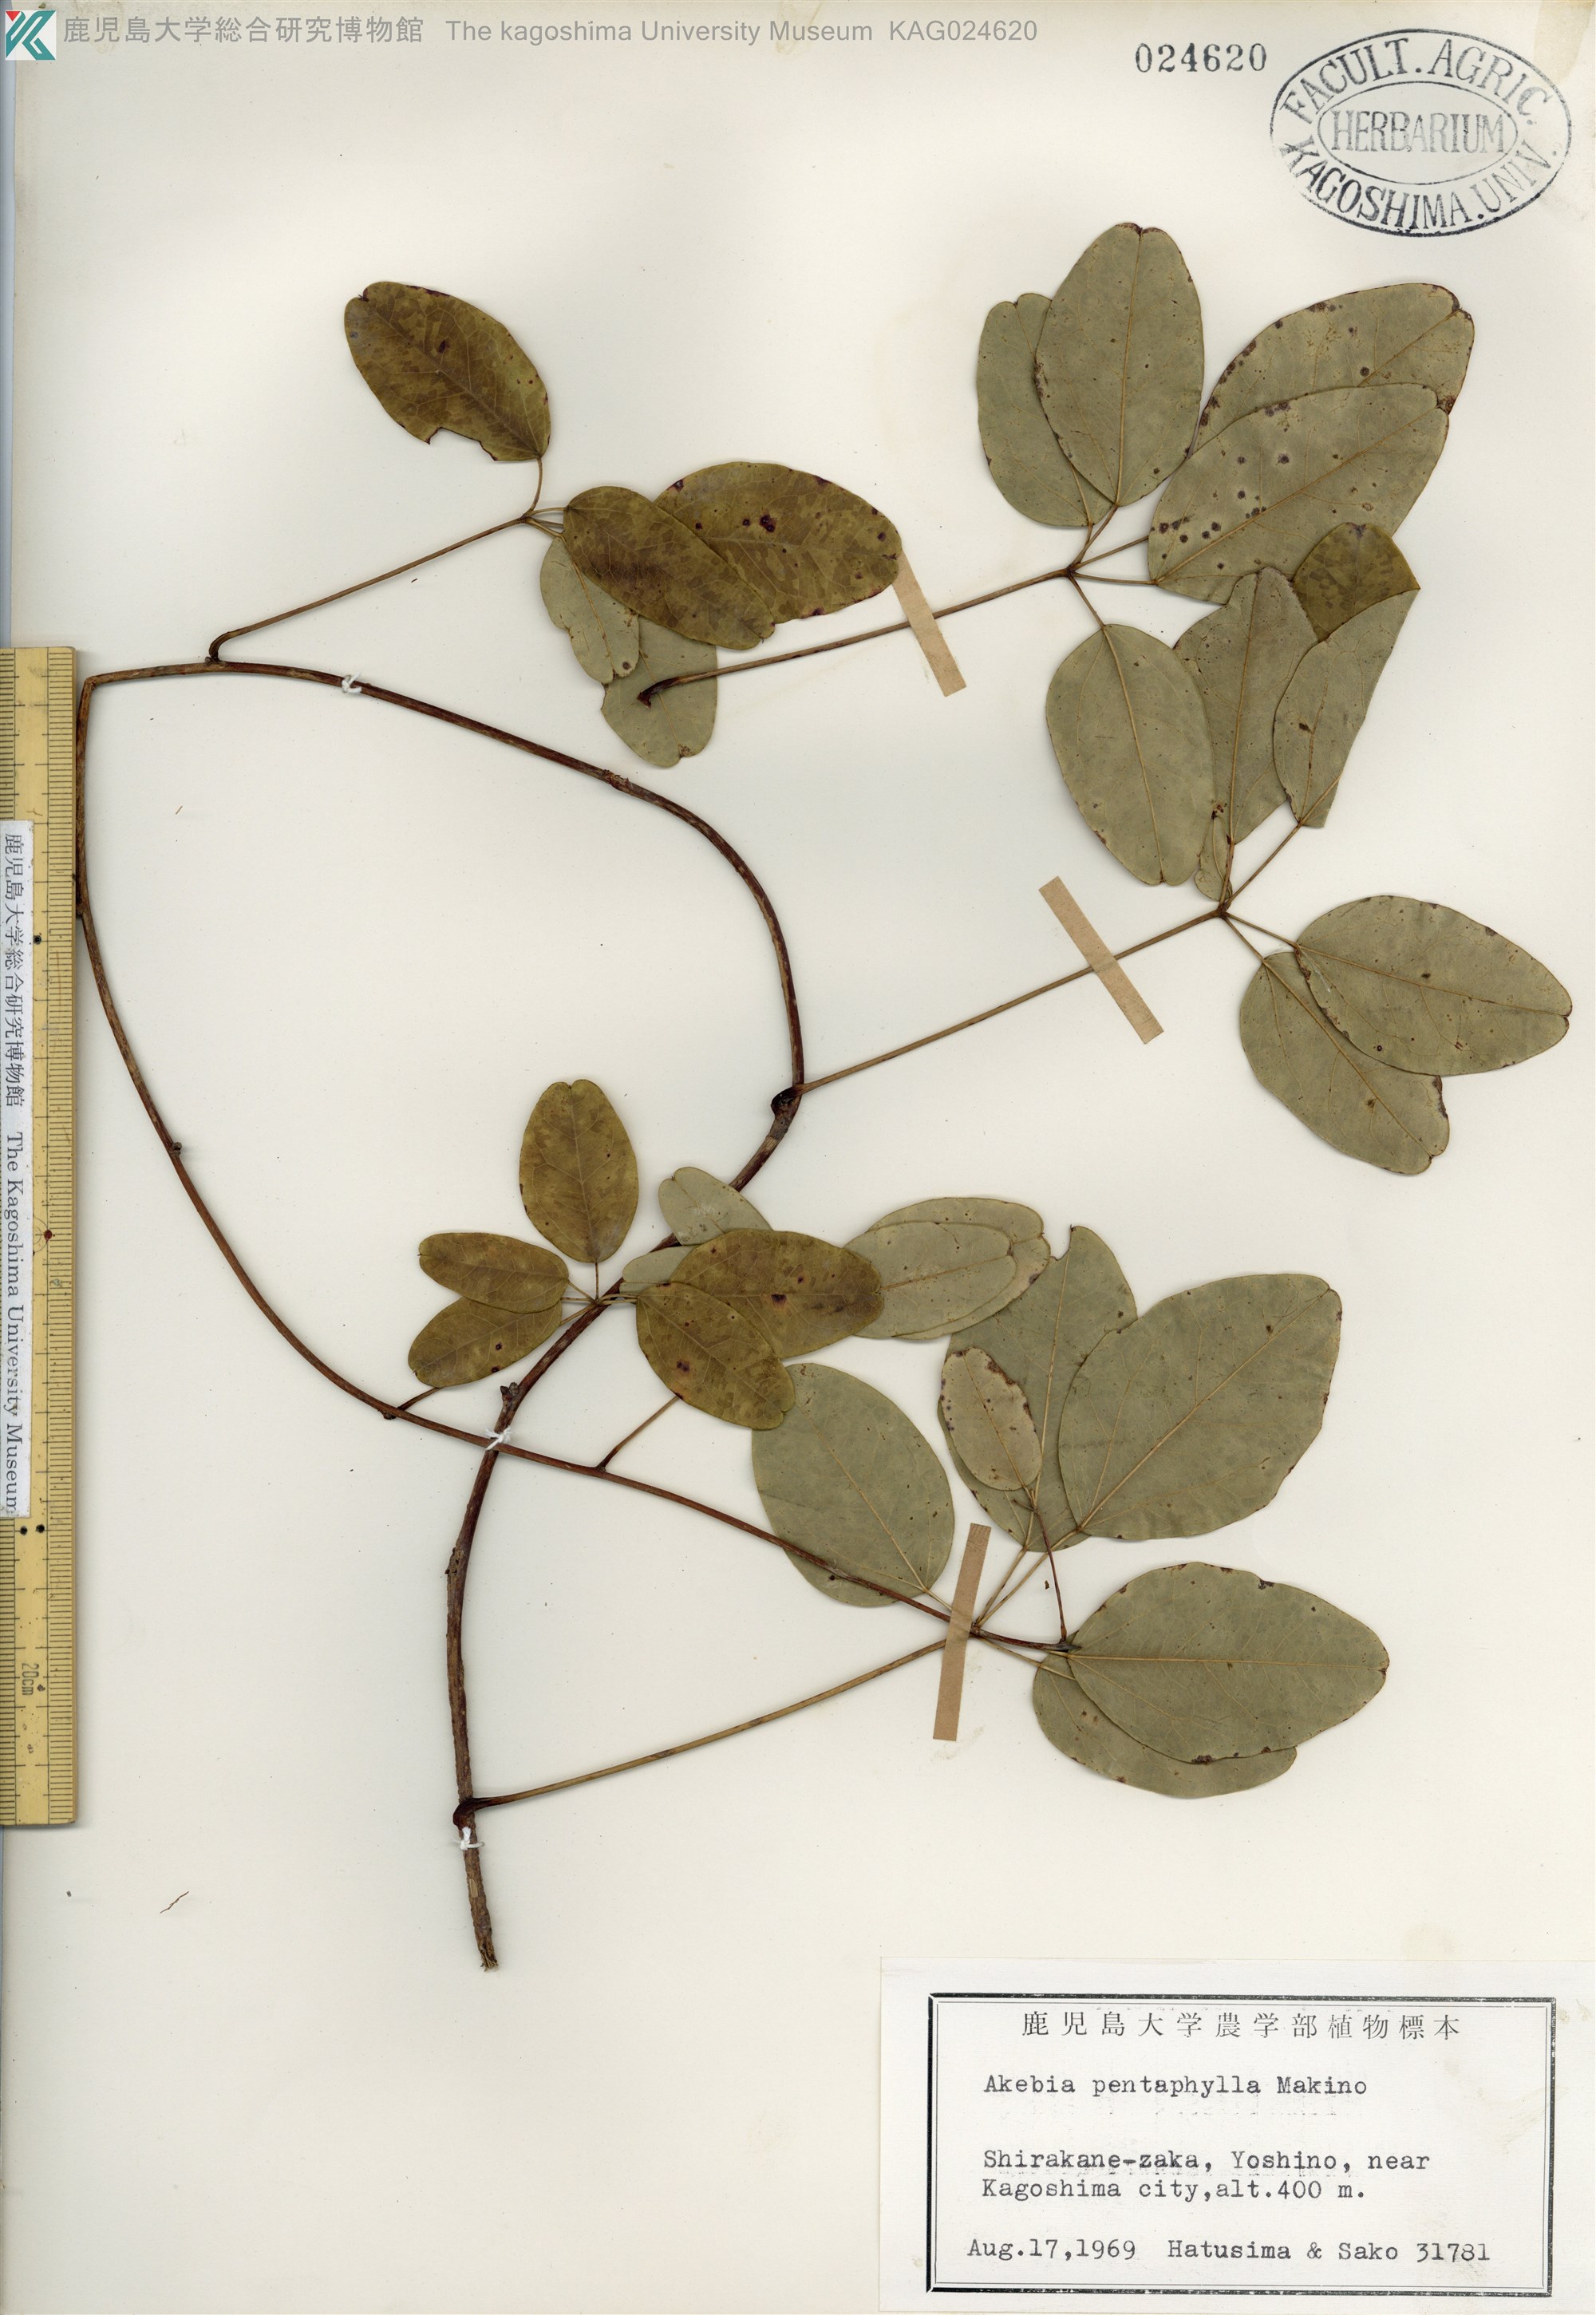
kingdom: Plantae
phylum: Tracheophyta
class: Magnoliopsida
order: Ranunculales
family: Lardizabalaceae
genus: Akebia
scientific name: Akebia pentaphylla
